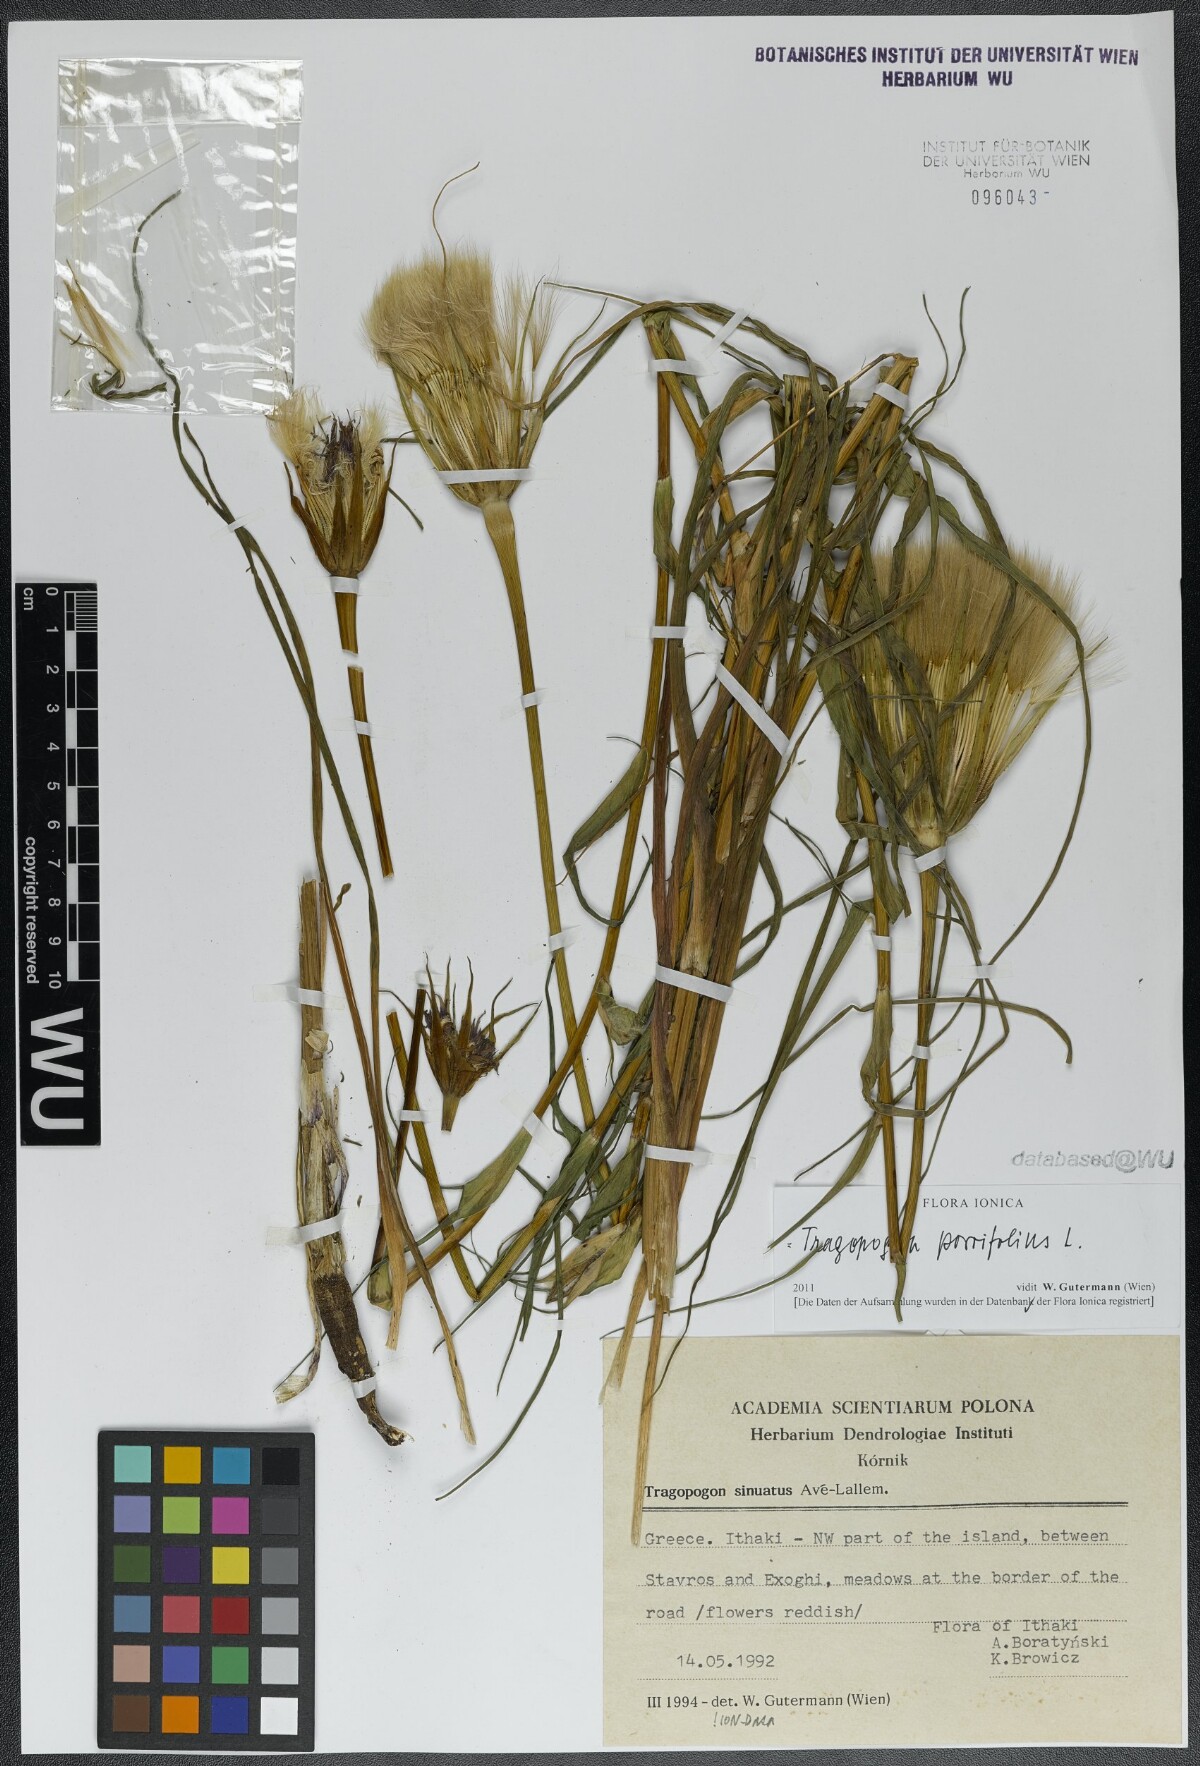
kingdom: Plantae
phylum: Tracheophyta
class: Magnoliopsida
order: Asterales
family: Asteraceae
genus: Tragopogon
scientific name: Tragopogon porrifolius
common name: Salsify
